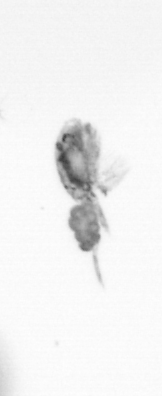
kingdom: Animalia
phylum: Arthropoda
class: Copepoda
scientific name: Copepoda
